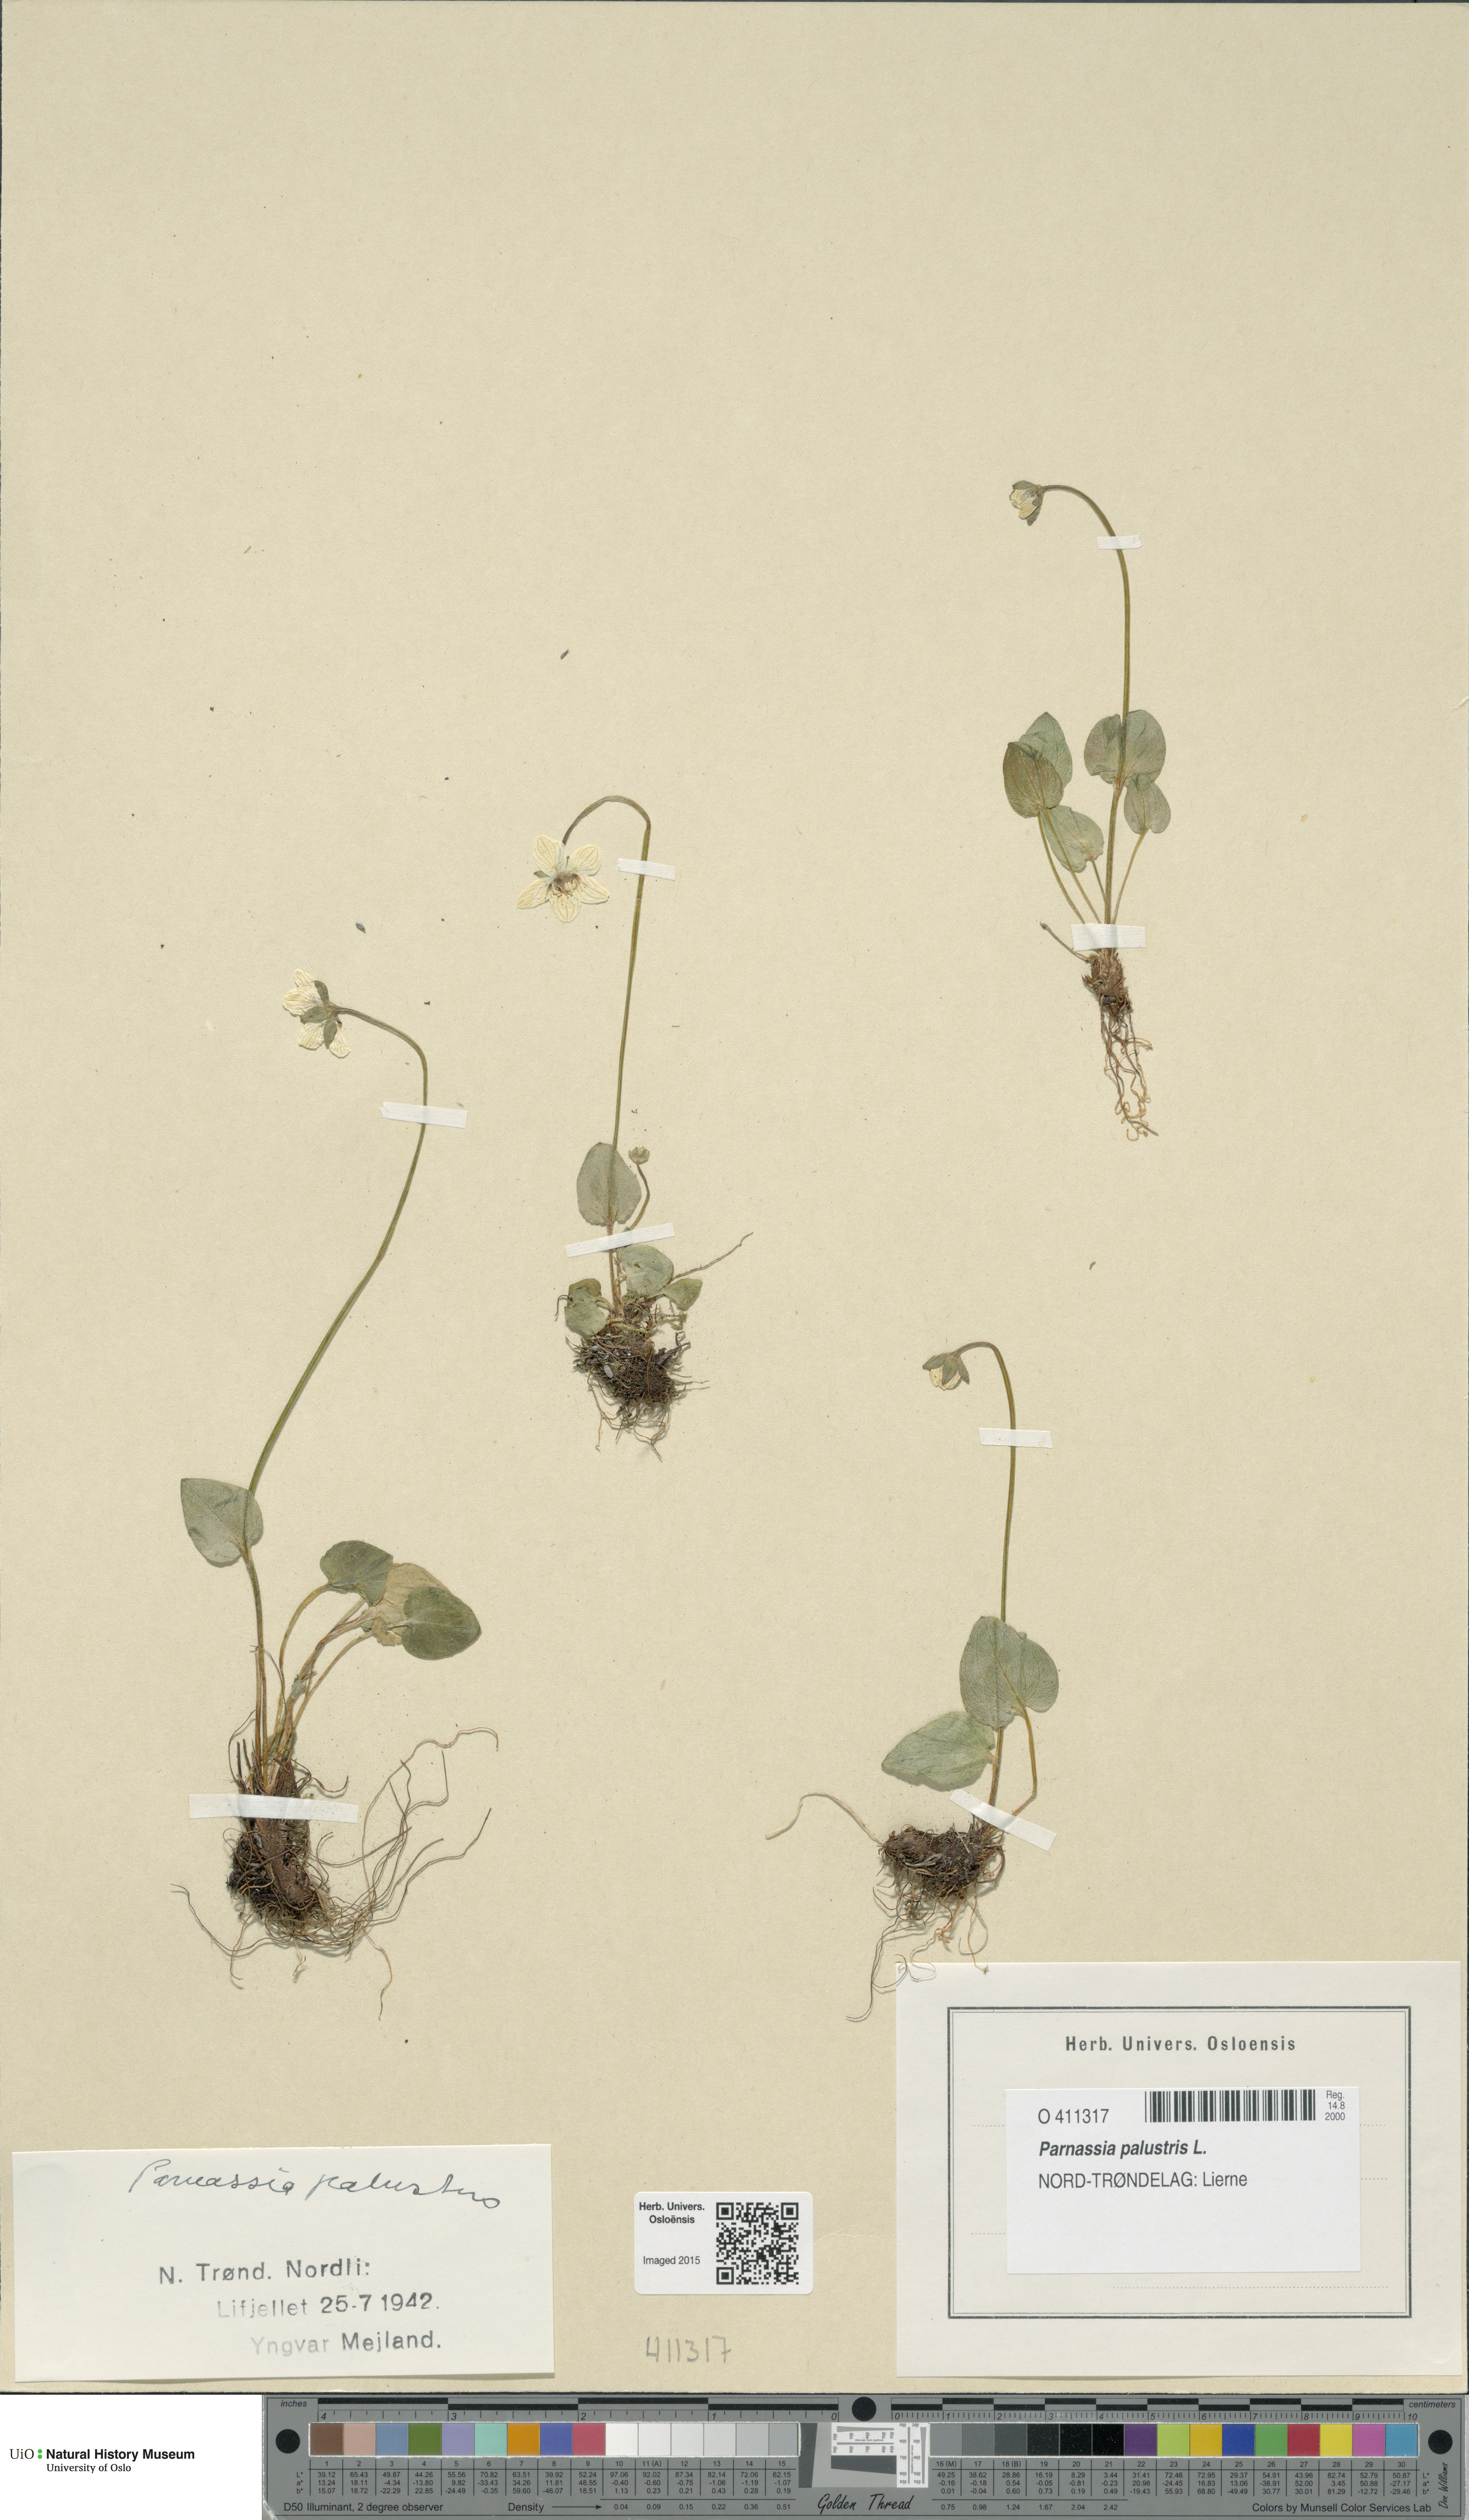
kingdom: Plantae
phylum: Tracheophyta
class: Magnoliopsida
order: Celastrales
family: Parnassiaceae
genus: Parnassia
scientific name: Parnassia palustris
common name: Grass-of-parnassus
